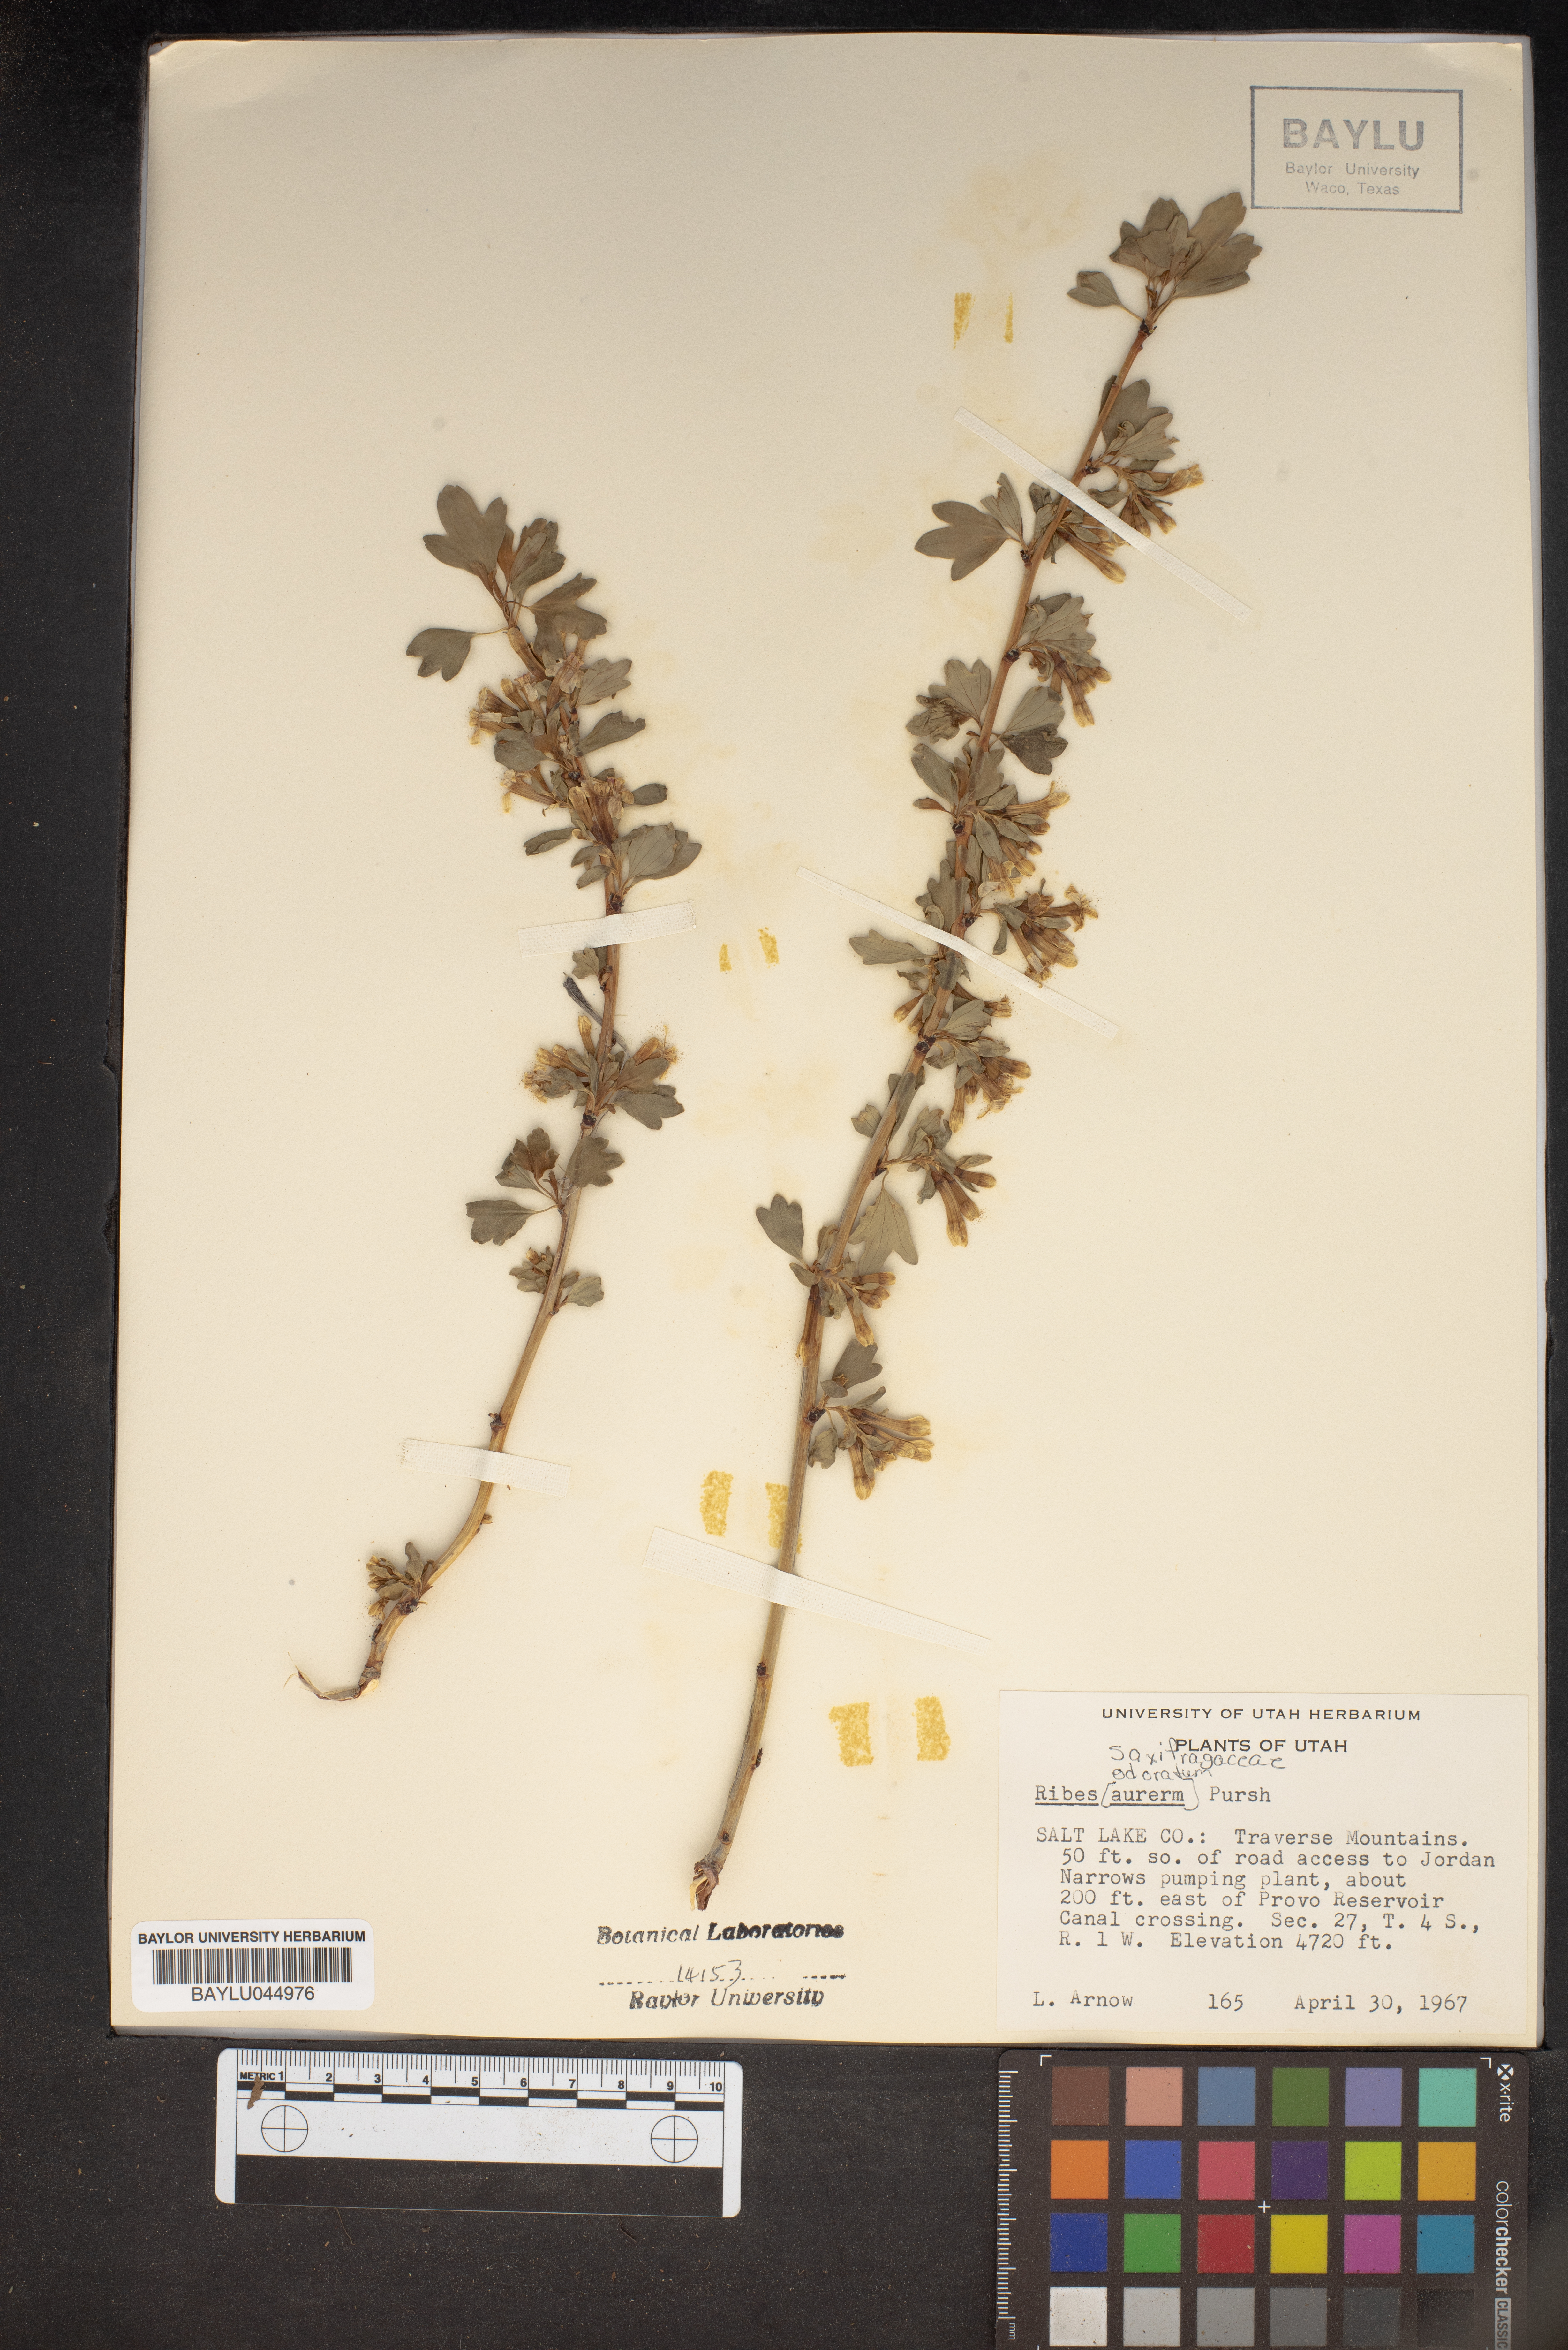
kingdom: Plantae
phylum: Tracheophyta
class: Magnoliopsida
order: Saxifragales
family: Grossulariaceae
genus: Ribes
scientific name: Ribes aureum
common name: Golden currant
